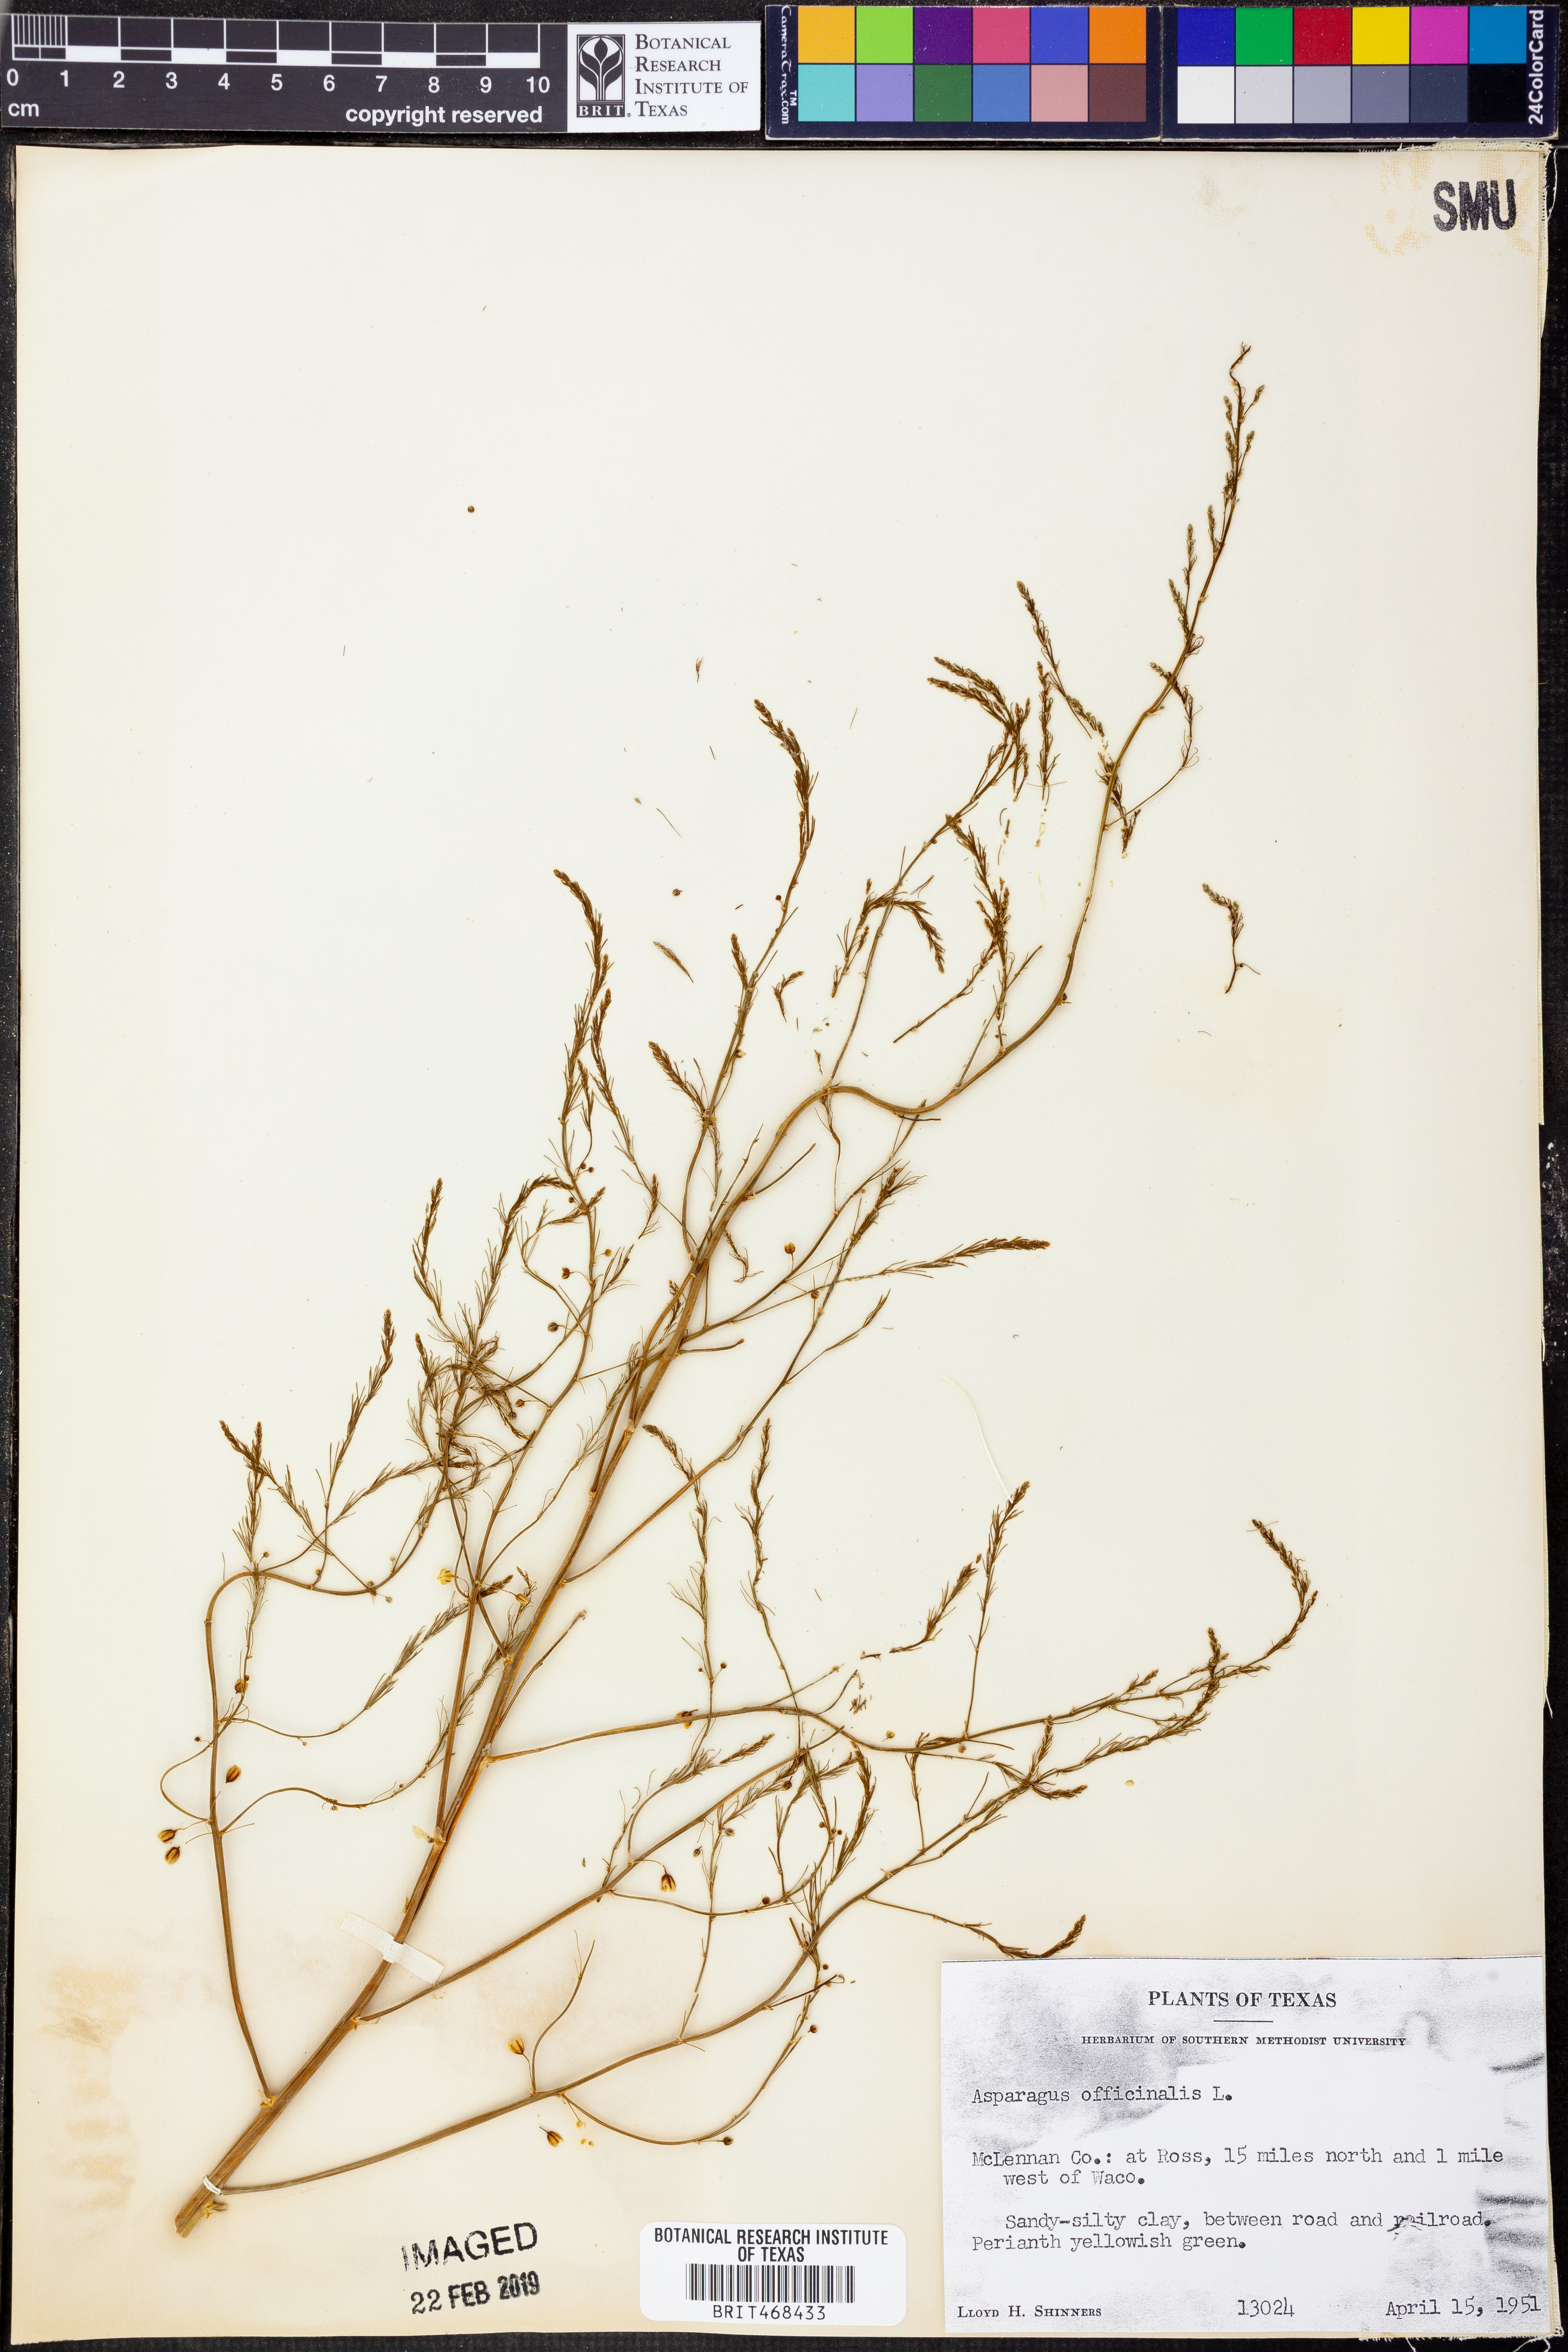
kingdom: Plantae
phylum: Tracheophyta
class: Liliopsida
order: Asparagales
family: Asparagaceae
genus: Asparagus
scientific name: Asparagus officinalis
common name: Garden asparagus
